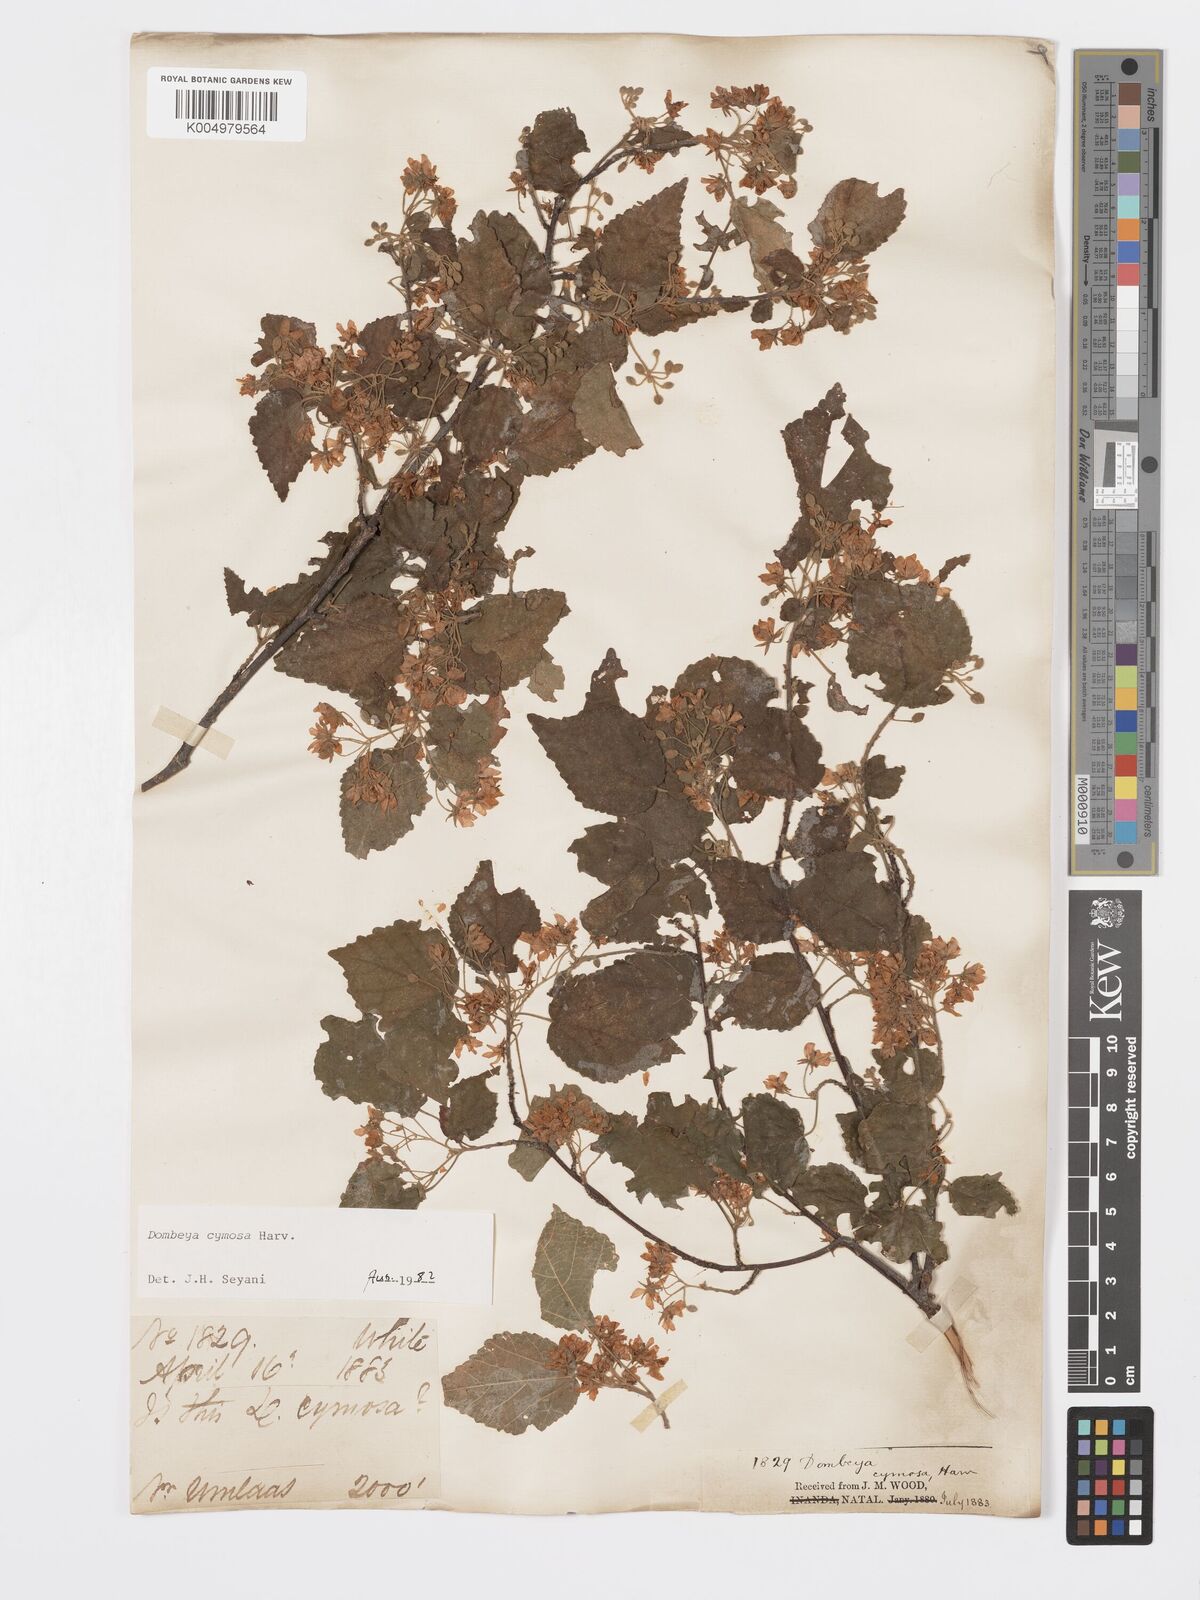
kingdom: Plantae
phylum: Tracheophyta
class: Magnoliopsida
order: Malvales
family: Malvaceae
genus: Dombeya
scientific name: Dombeya cymosa
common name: Hairless dombeya
